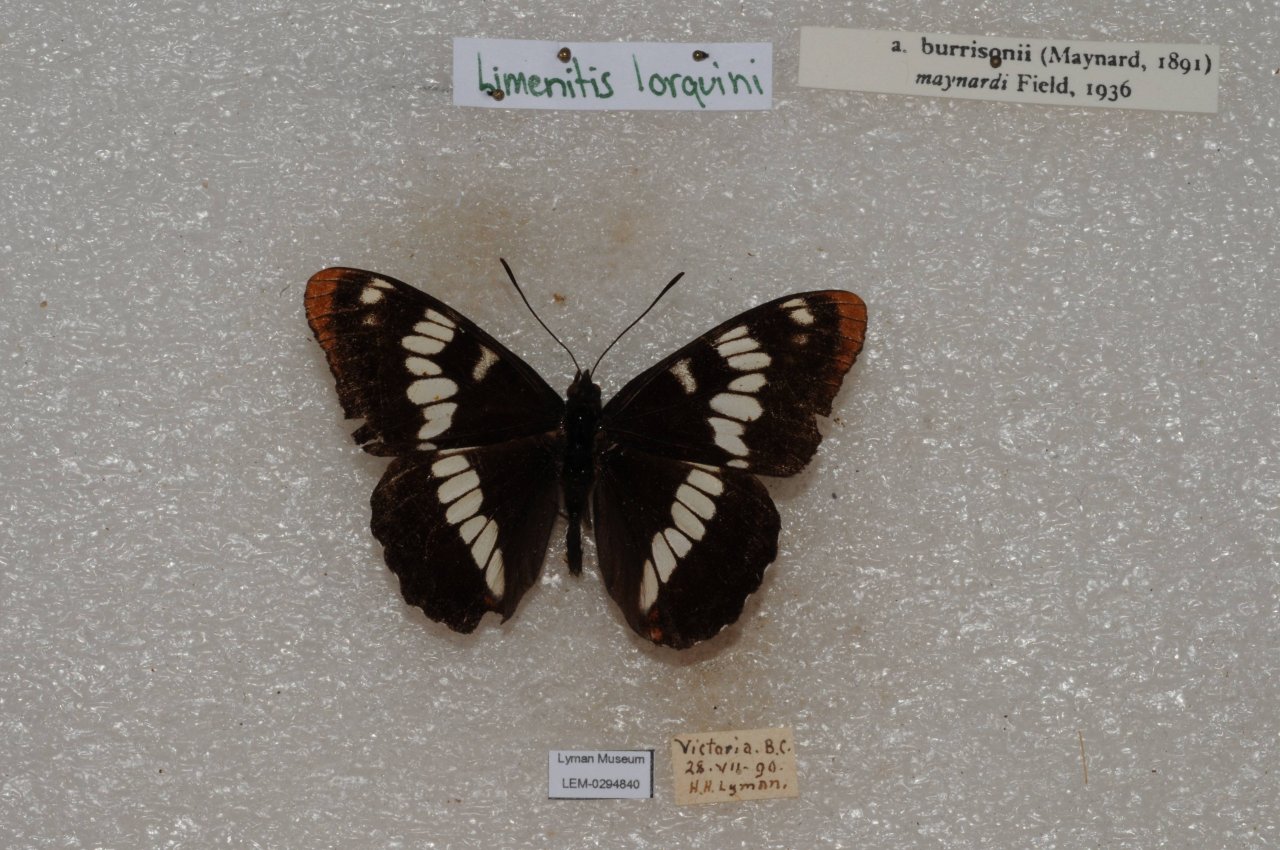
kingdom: Animalia
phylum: Arthropoda
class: Insecta
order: Lepidoptera
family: Nymphalidae
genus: Limenitis
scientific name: Limenitis lorquini
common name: Lorquin's Admiral
